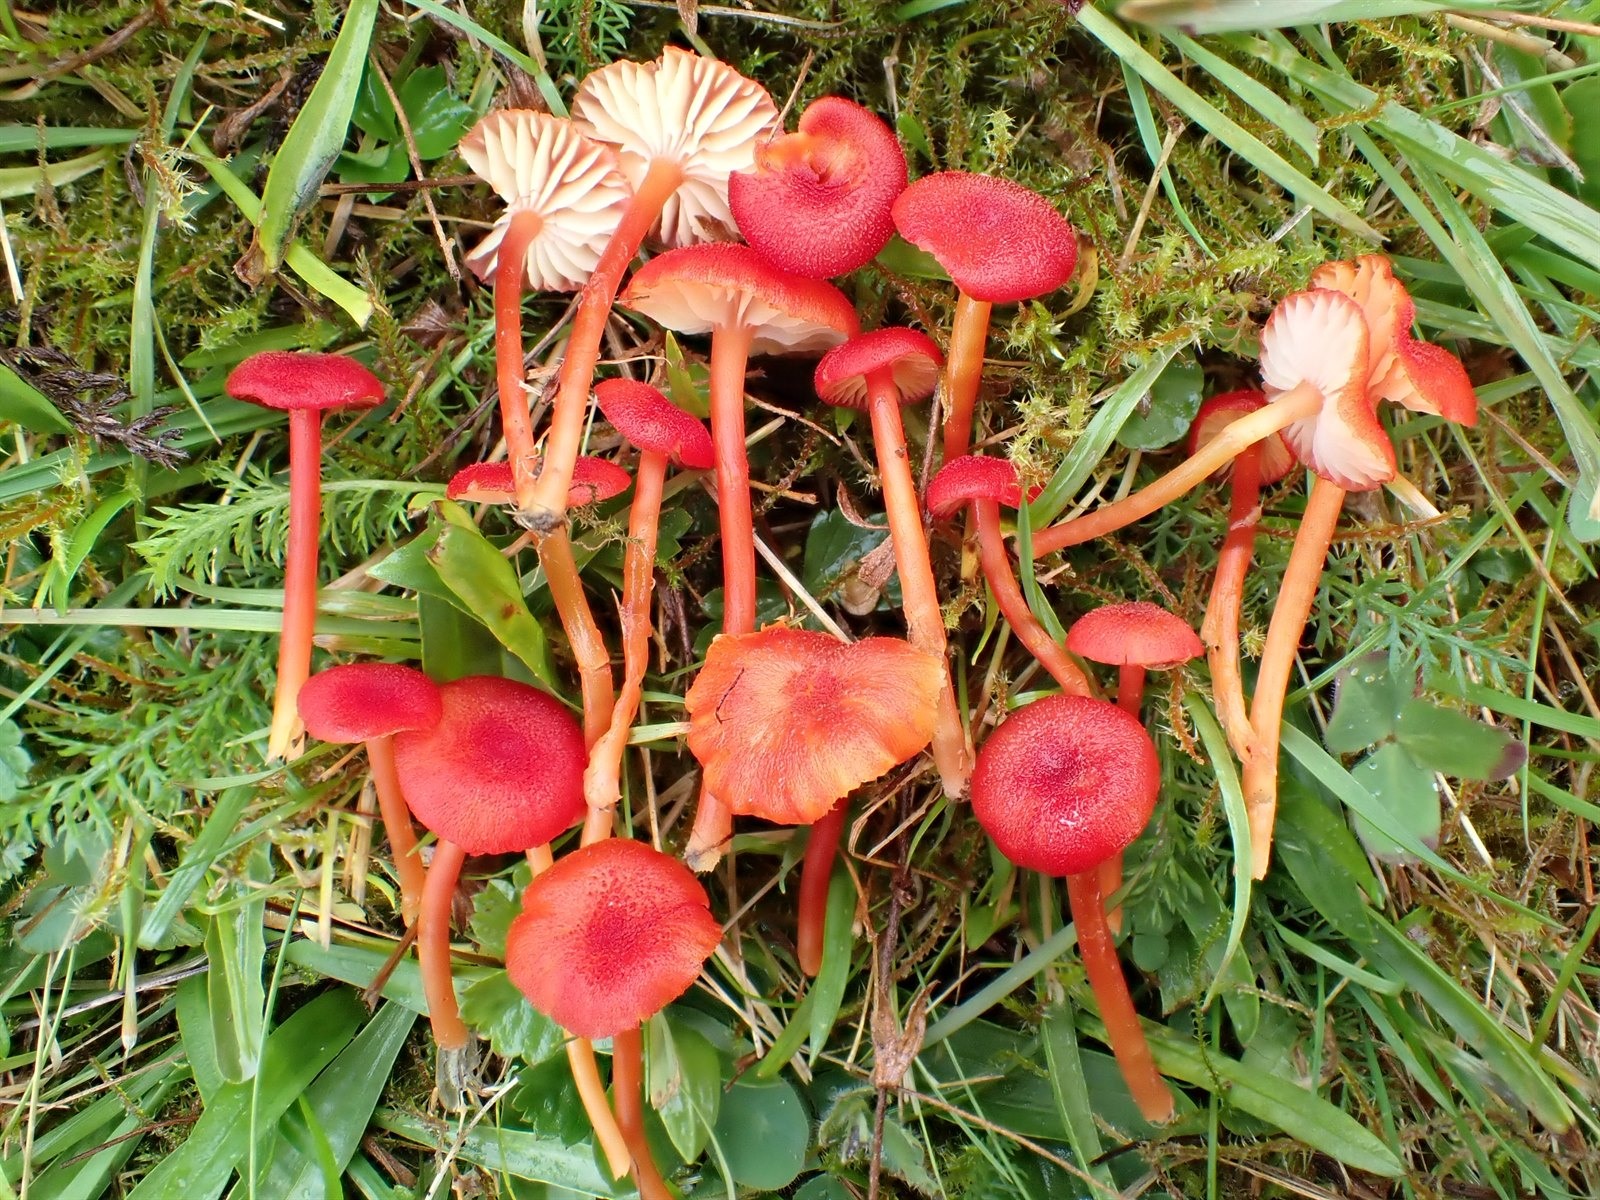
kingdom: Fungi
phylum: Basidiomycota
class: Agaricomycetes
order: Agaricales
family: Hygrophoraceae
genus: Hygrocybe
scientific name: Hygrocybe helobia
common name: Garlic waxcap
